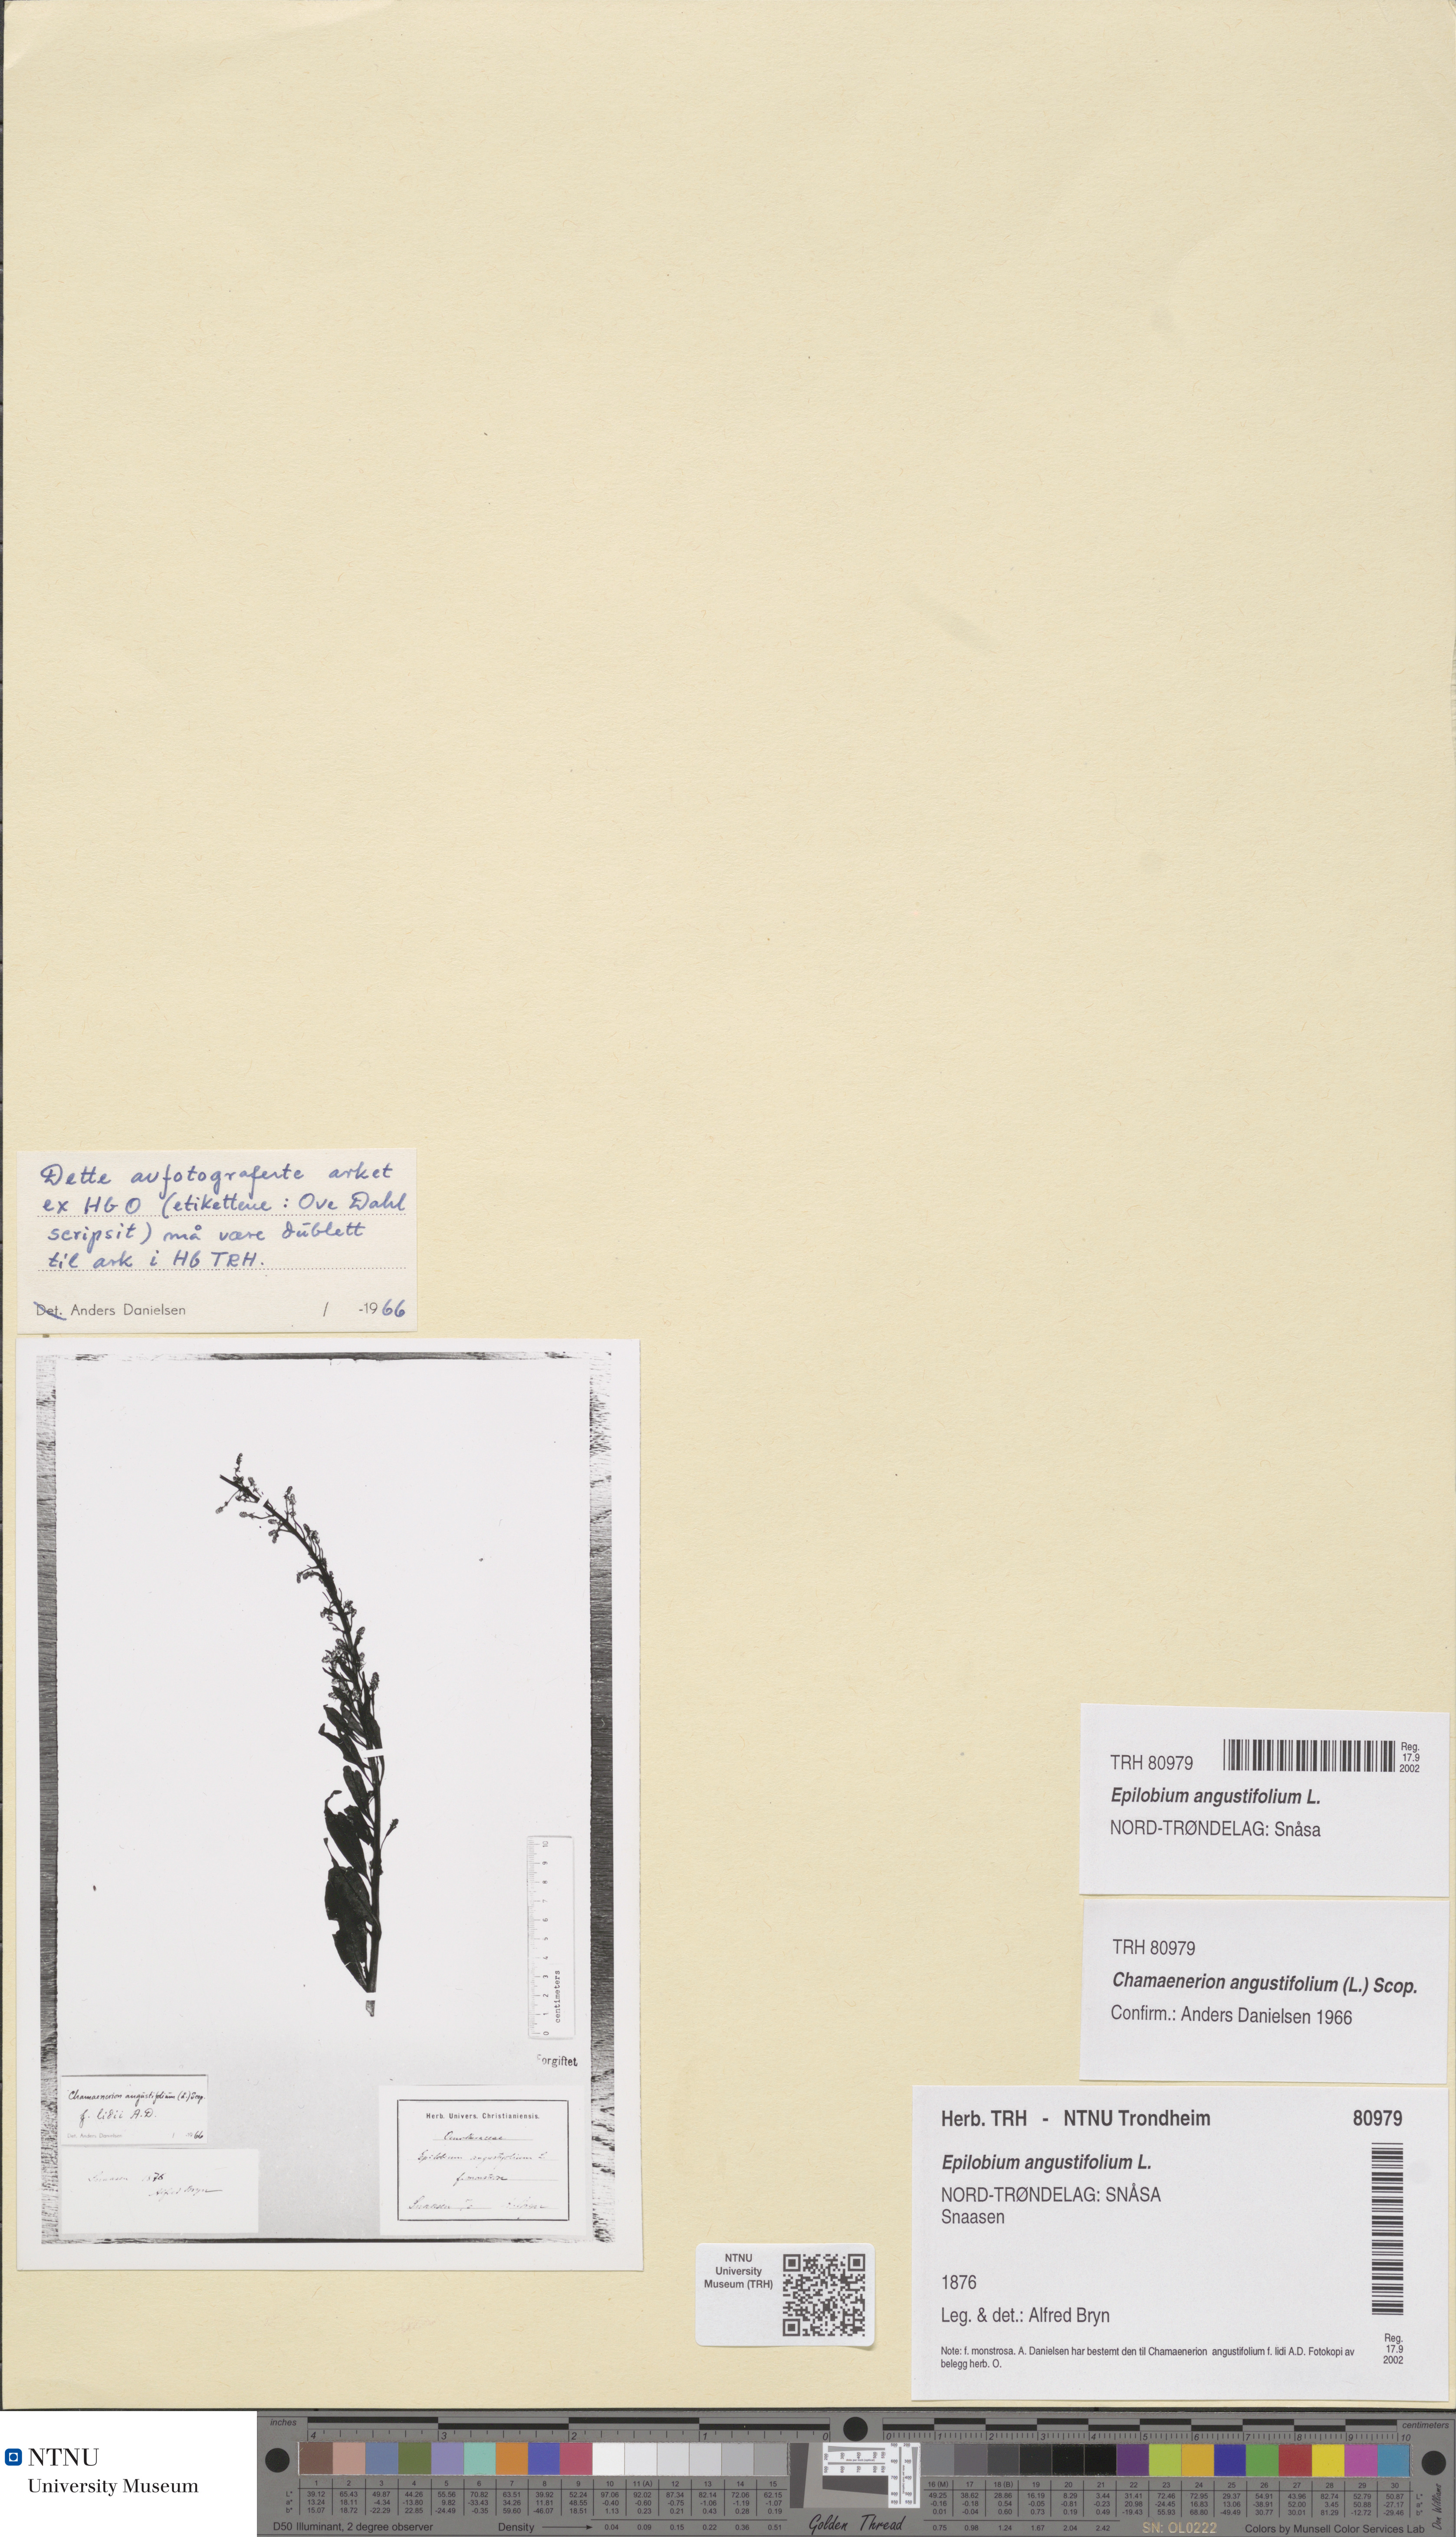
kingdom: Plantae
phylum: Tracheophyta
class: Magnoliopsida
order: Myrtales
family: Onagraceae
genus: Chamaenerion
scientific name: Chamaenerion angustifolium
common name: Fireweed
